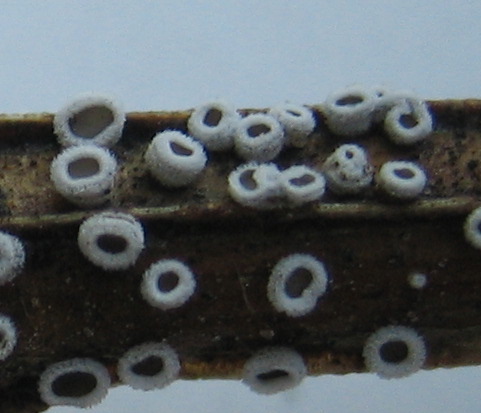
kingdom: Fungi
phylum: Basidiomycota
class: Agaricomycetes
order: Agaricales
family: Niaceae
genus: Lachnella
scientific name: Lachnella alboviolascens
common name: grå frynserede
